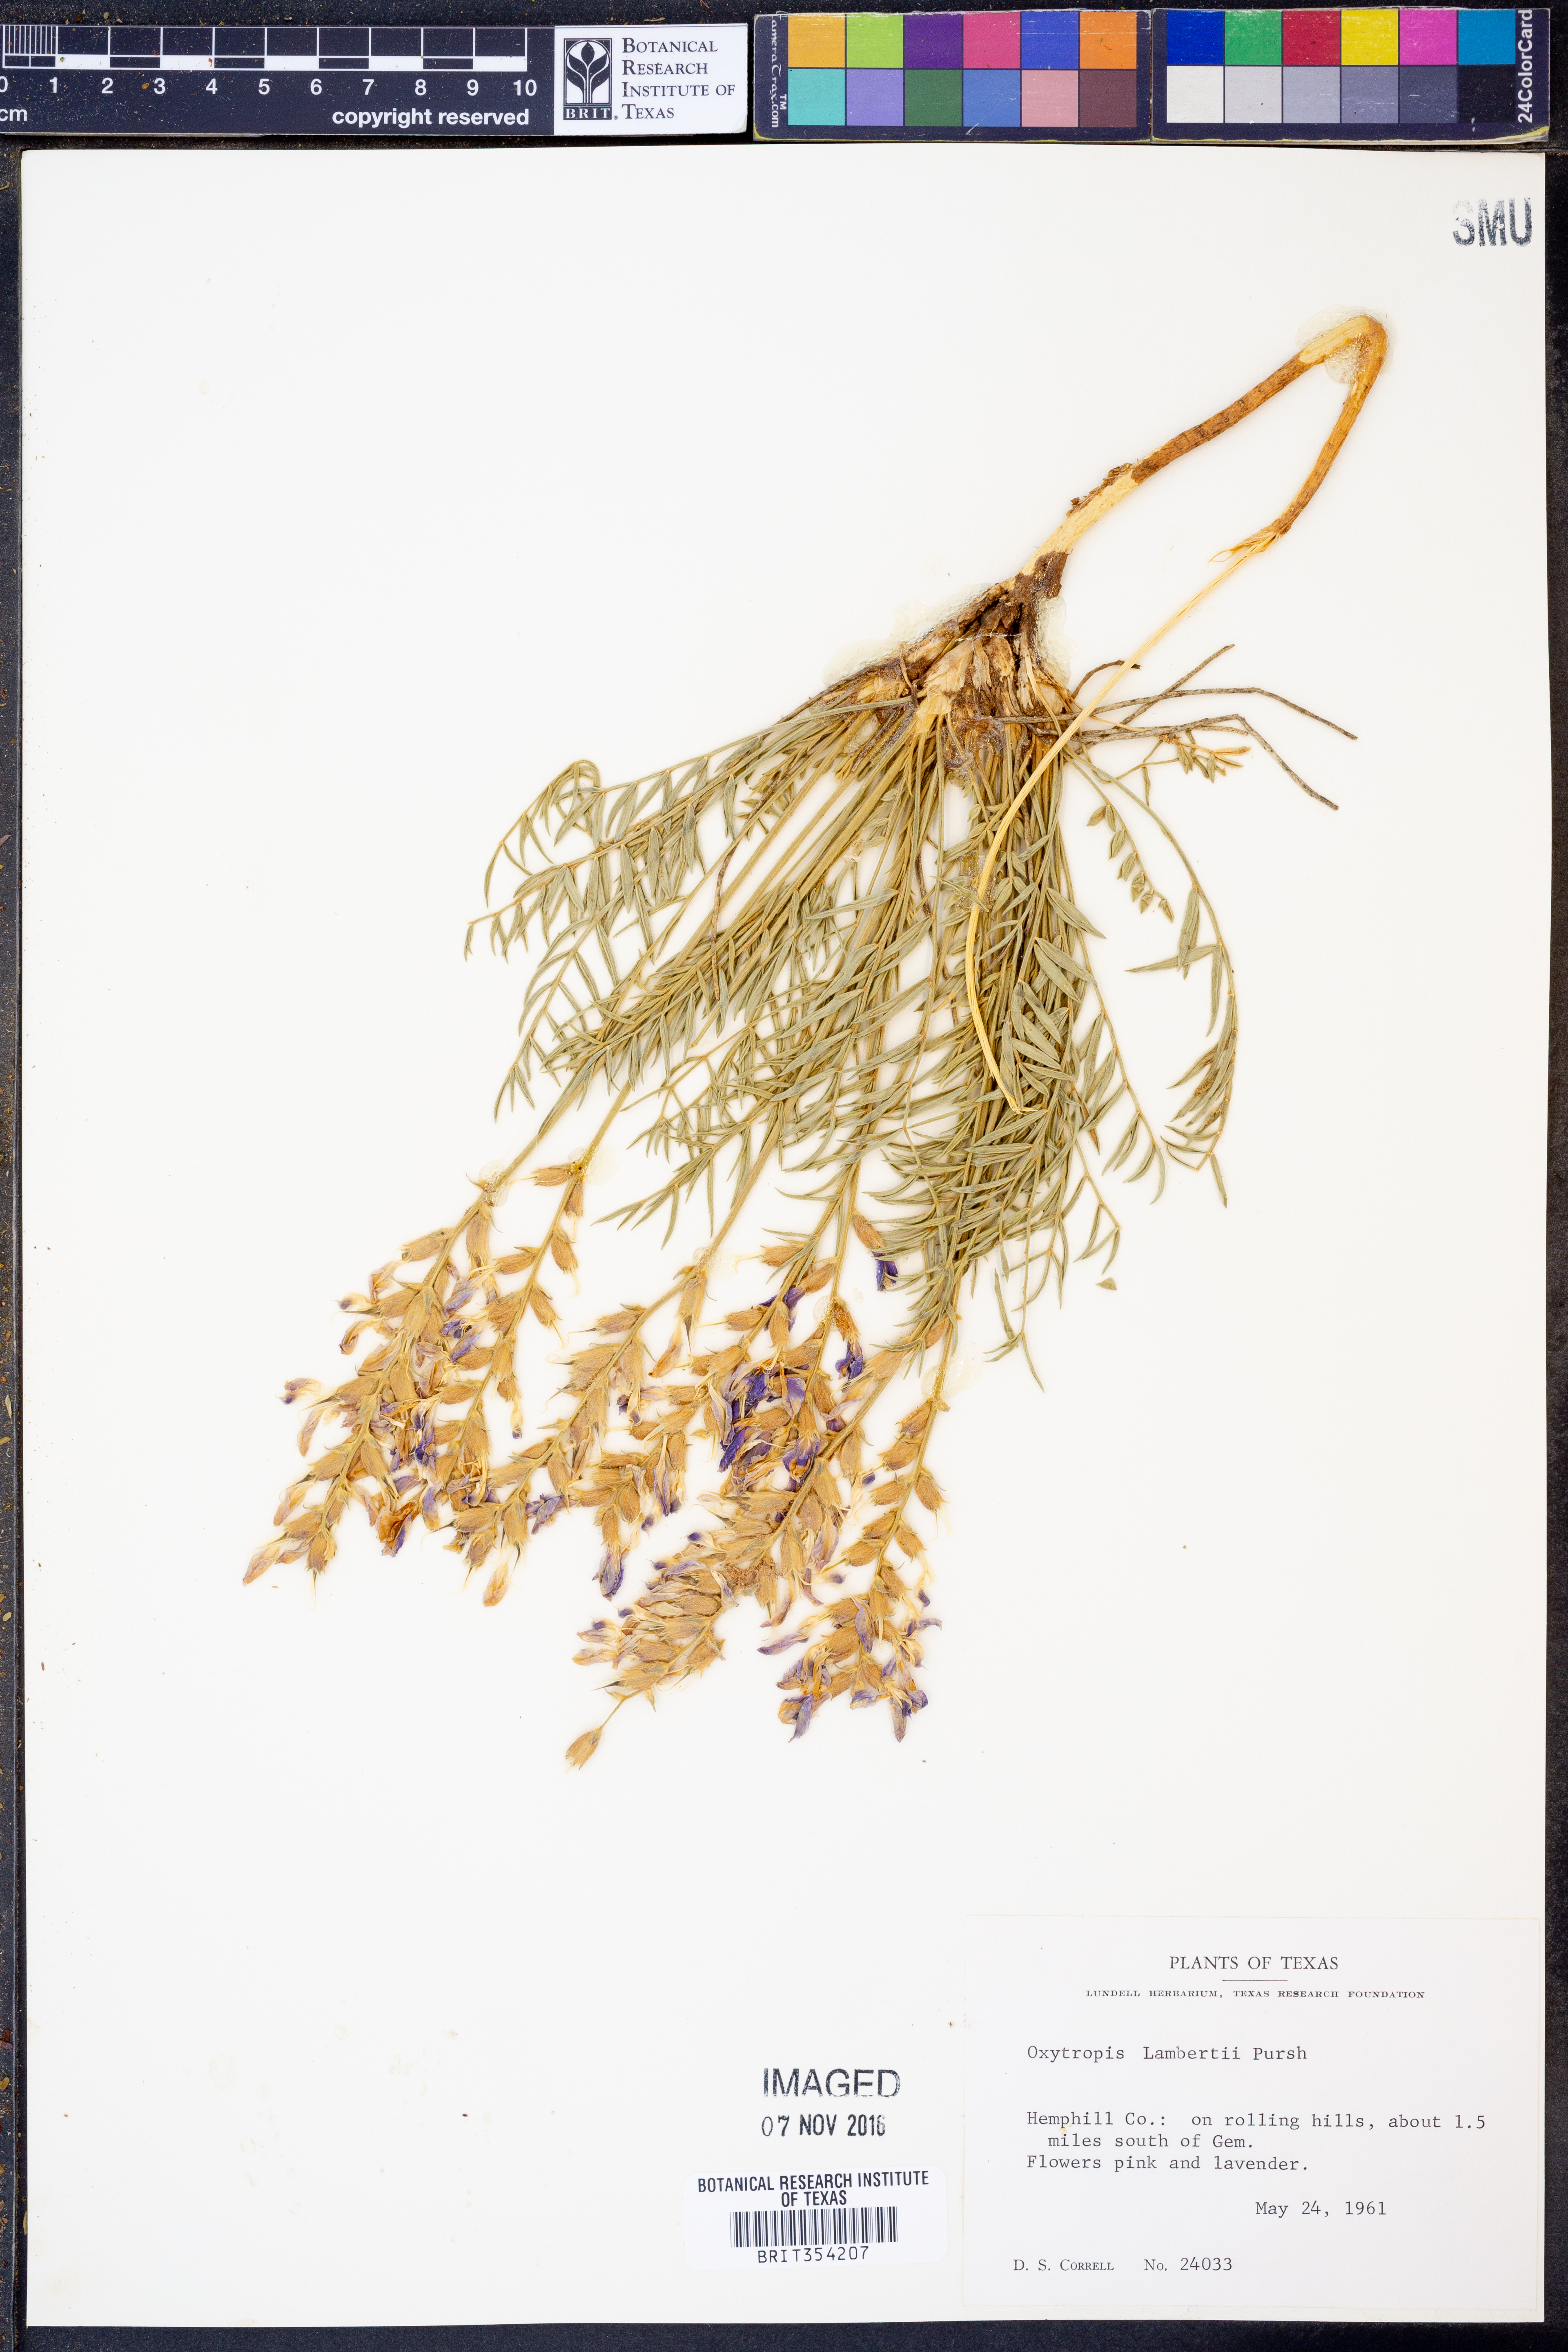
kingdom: Plantae
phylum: Tracheophyta
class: Magnoliopsida
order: Fabales
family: Fabaceae
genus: Oxytropis
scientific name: Oxytropis lambertii
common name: Purple locoweed
